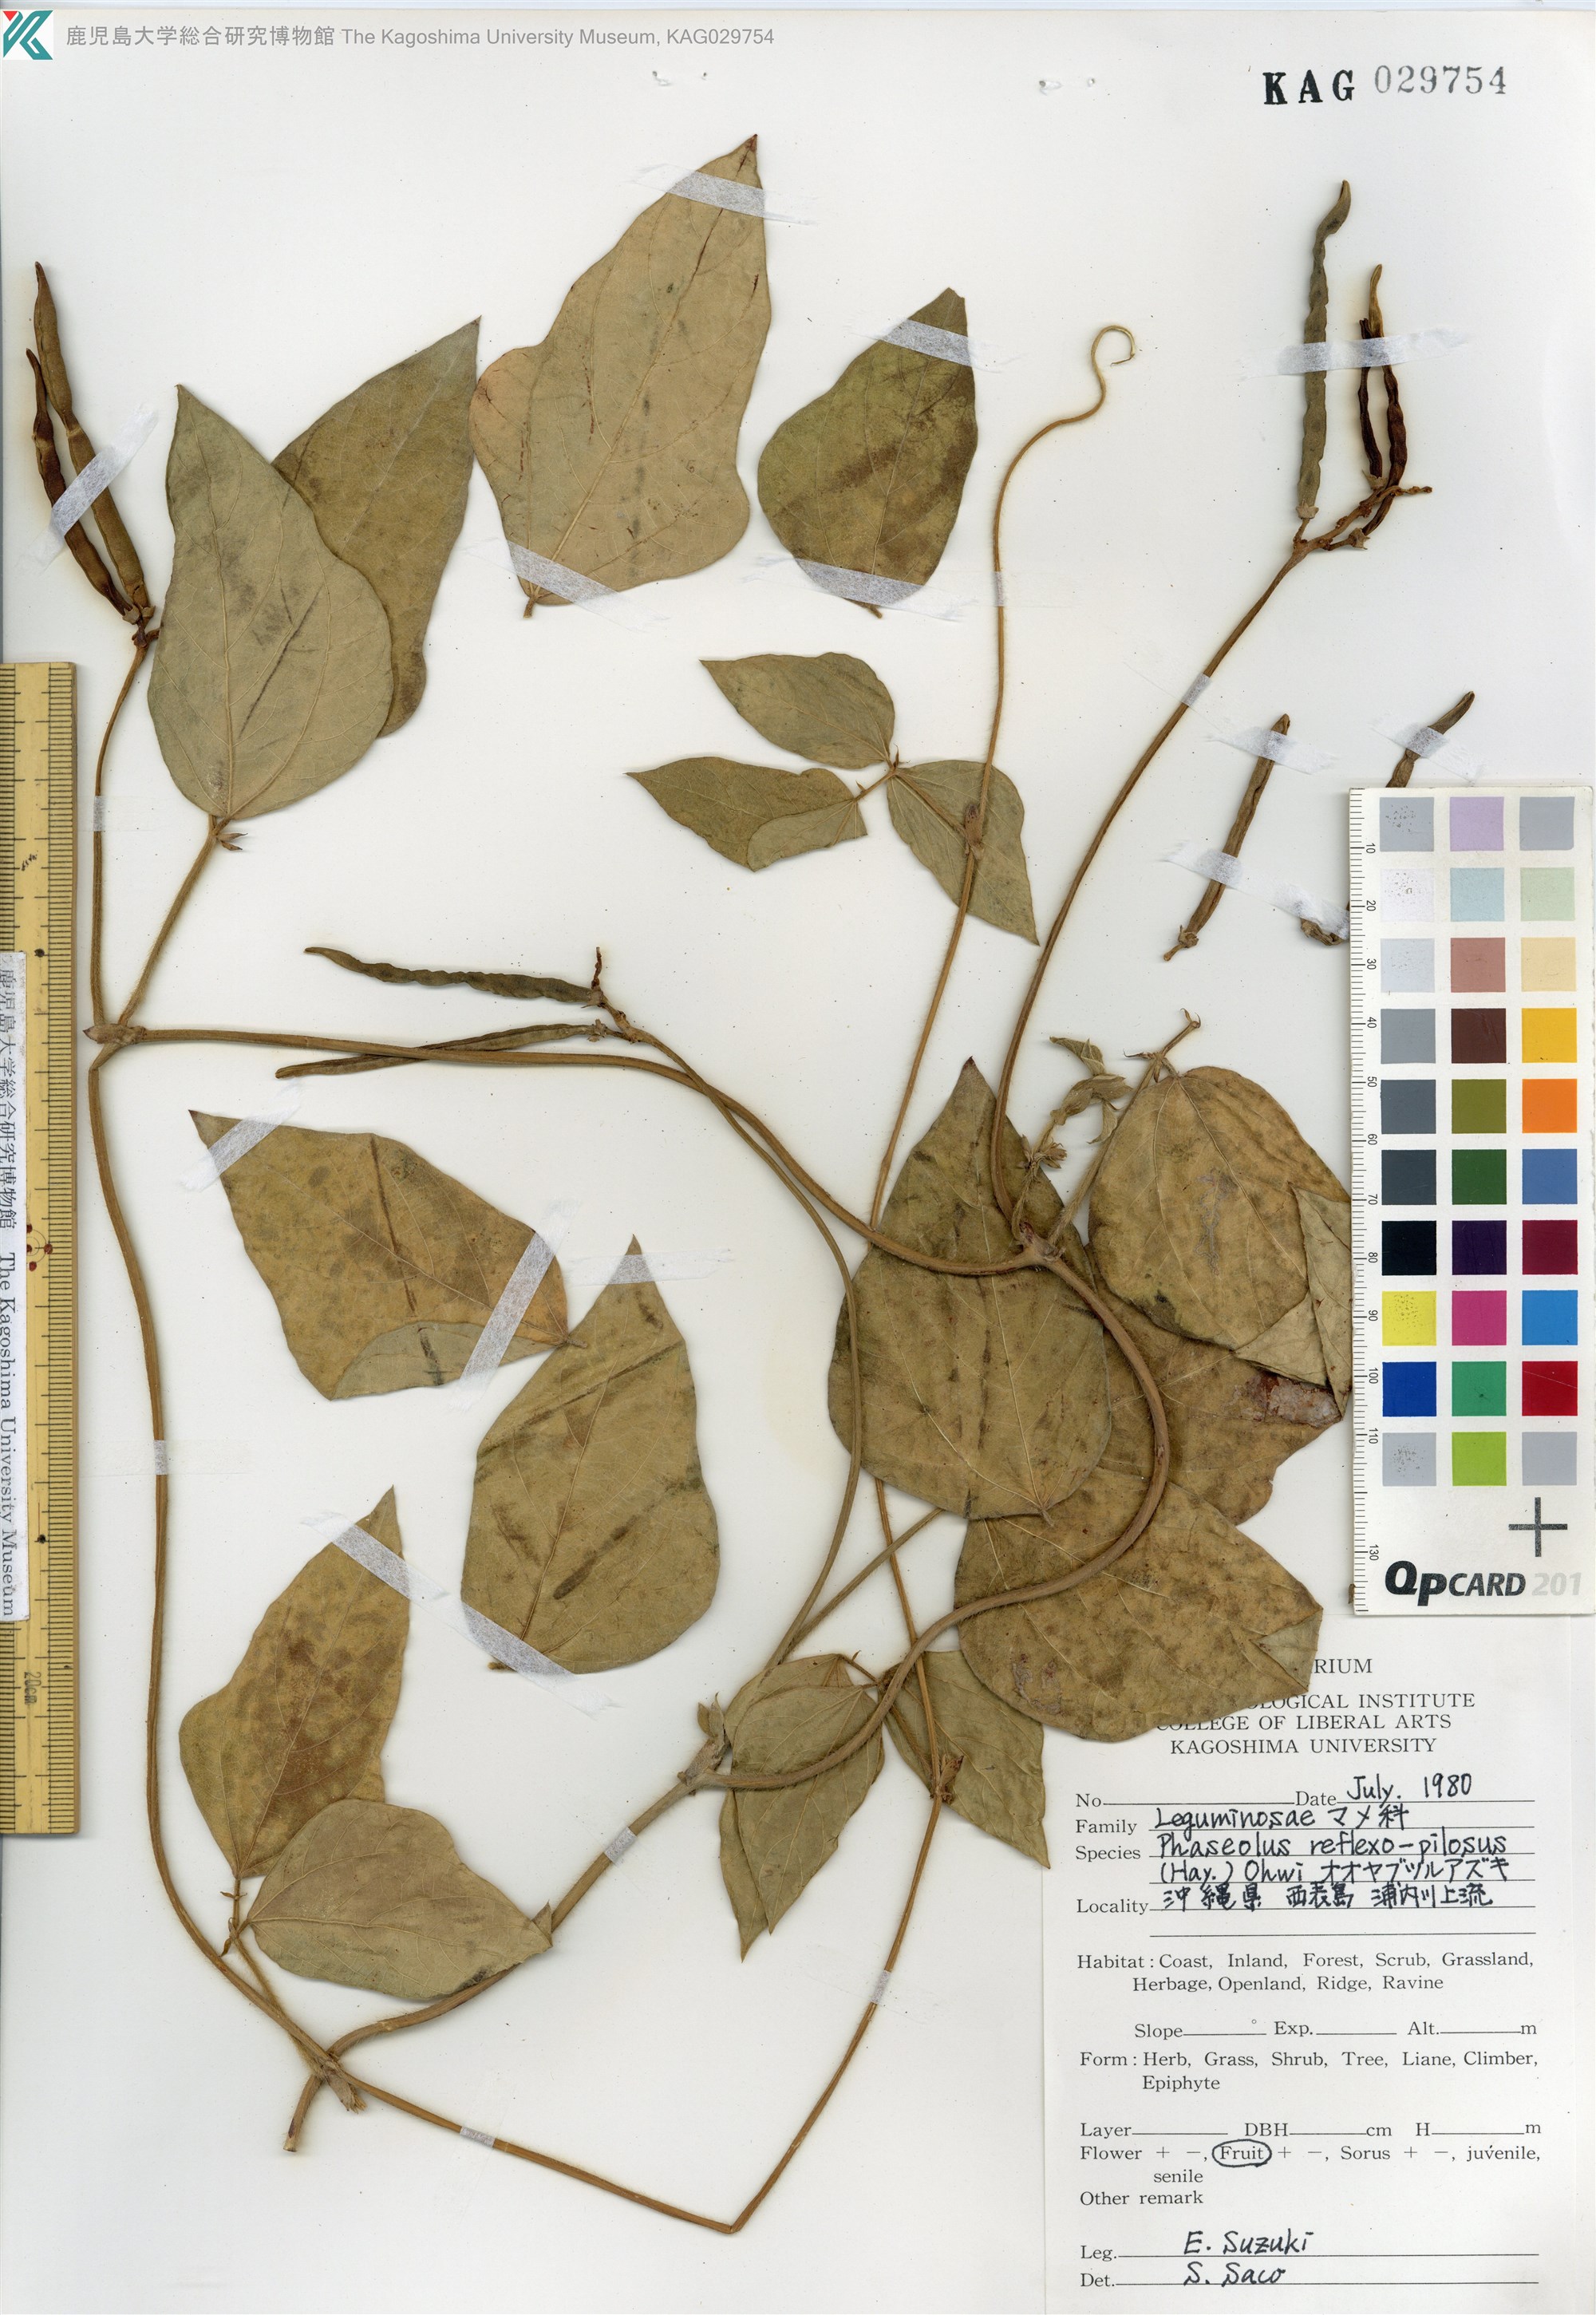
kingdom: Plantae
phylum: Tracheophyta
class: Magnoliopsida
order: Fabales
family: Fabaceae
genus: Vigna
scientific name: Vigna reflexopilosa
